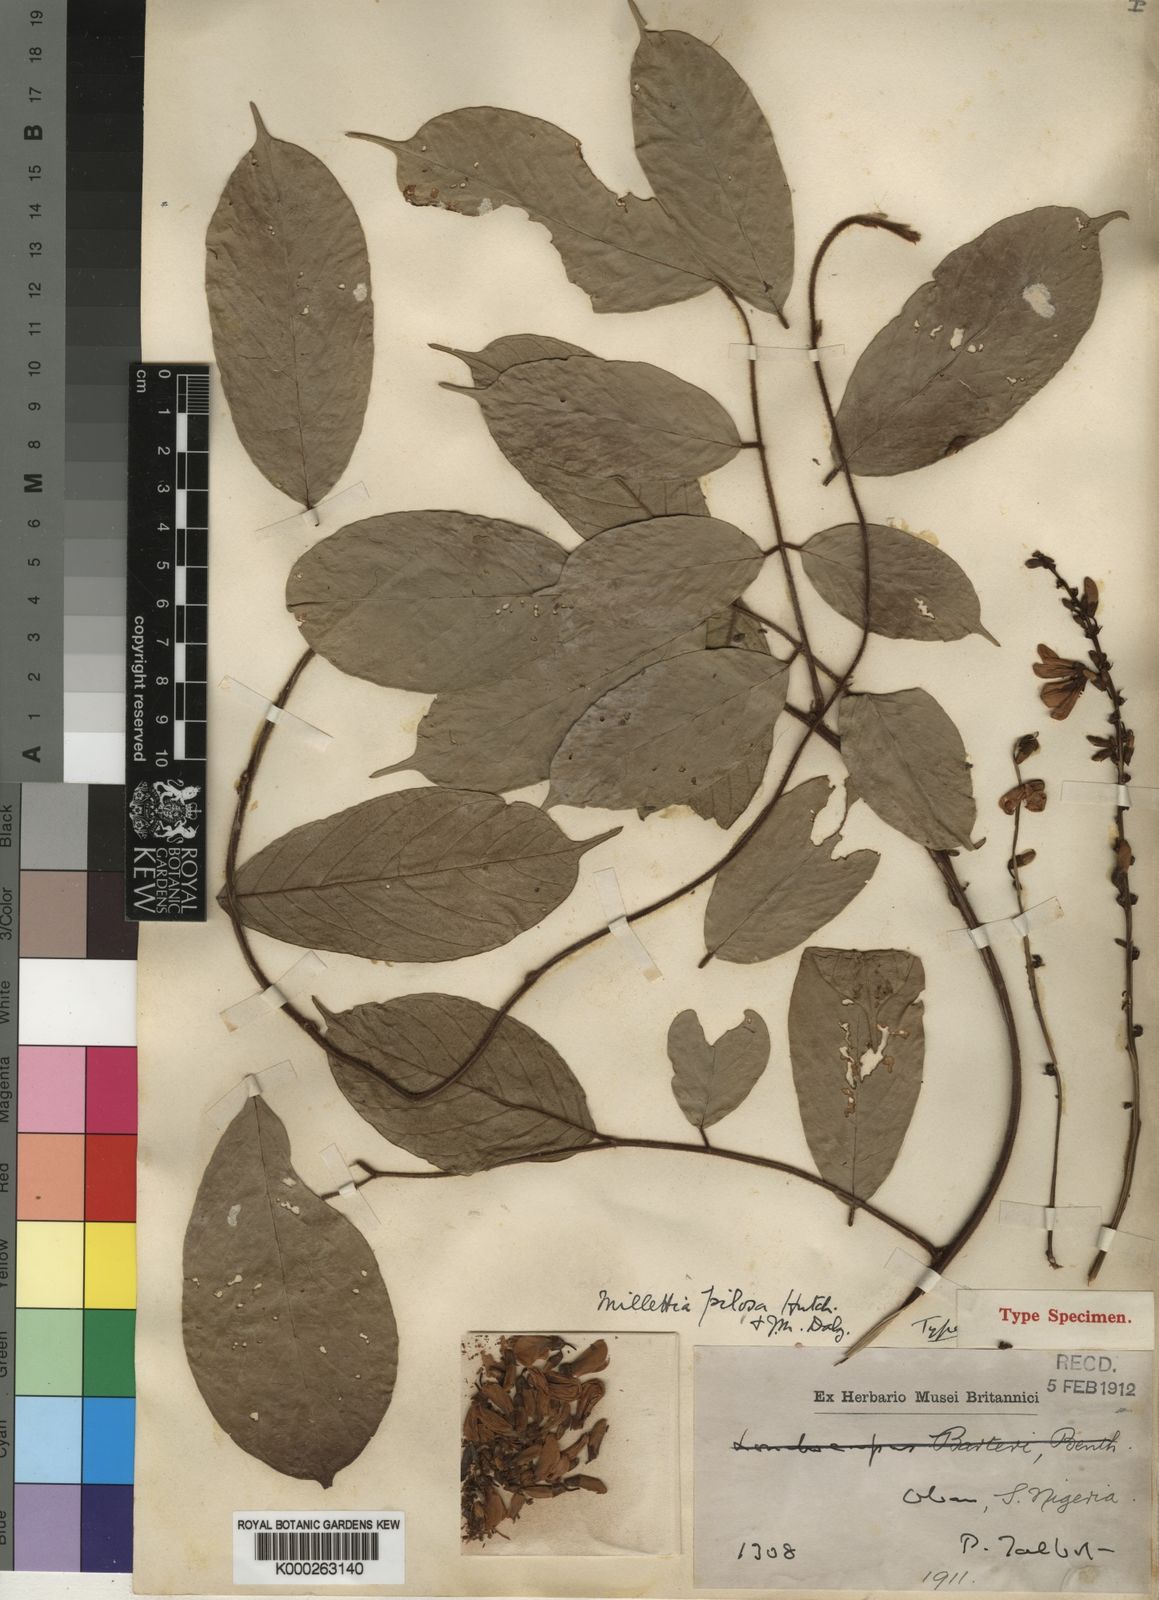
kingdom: Plantae
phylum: Tracheophyta
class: Magnoliopsida
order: Fabales
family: Fabaceae
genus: Millettia
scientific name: Millettia pilosa
